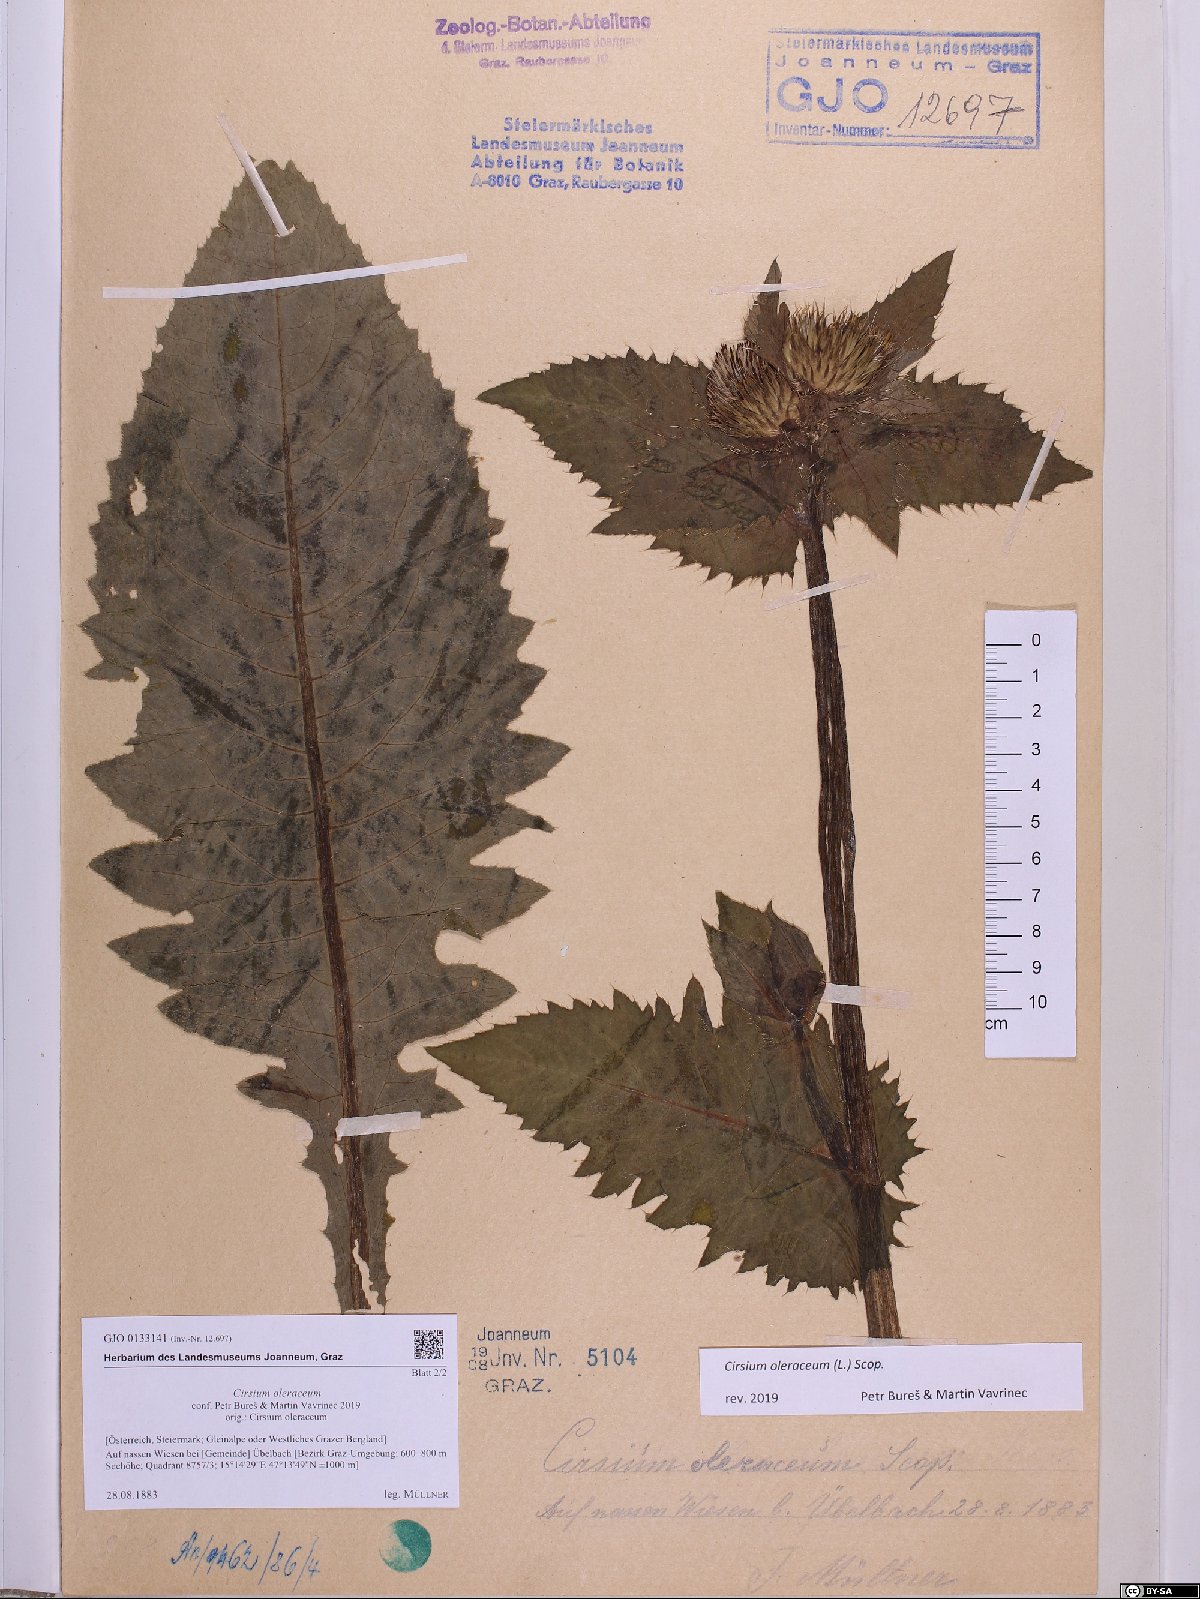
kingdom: Plantae
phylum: Tracheophyta
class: Magnoliopsida
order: Asterales
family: Asteraceae
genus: Cirsium
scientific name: Cirsium oleraceum
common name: Cabbage thistle
